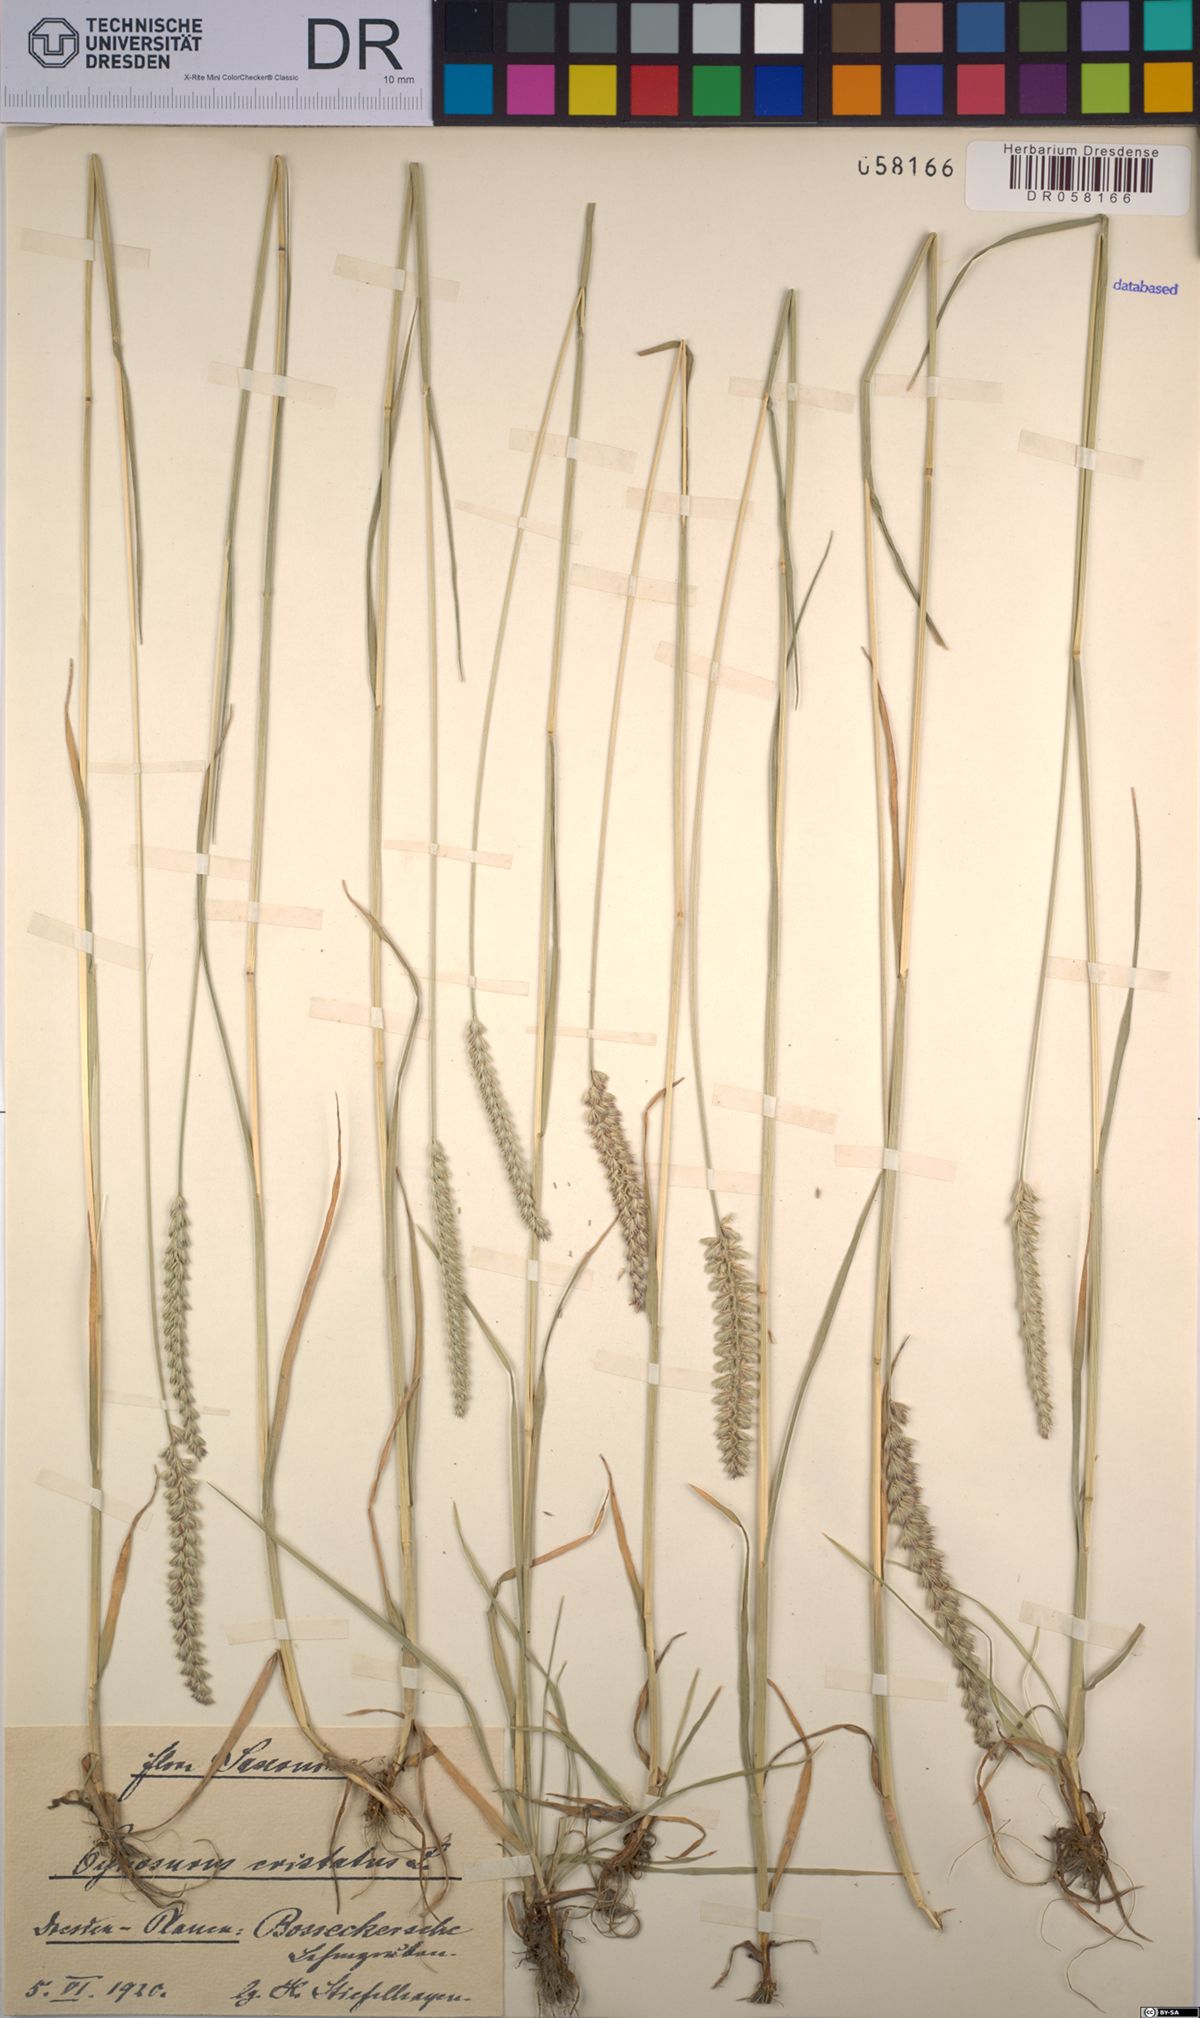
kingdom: Plantae
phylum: Tracheophyta
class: Liliopsida
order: Poales
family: Poaceae
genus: Cynosurus
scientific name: Cynosurus cristatus
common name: Crested dog's-tail
